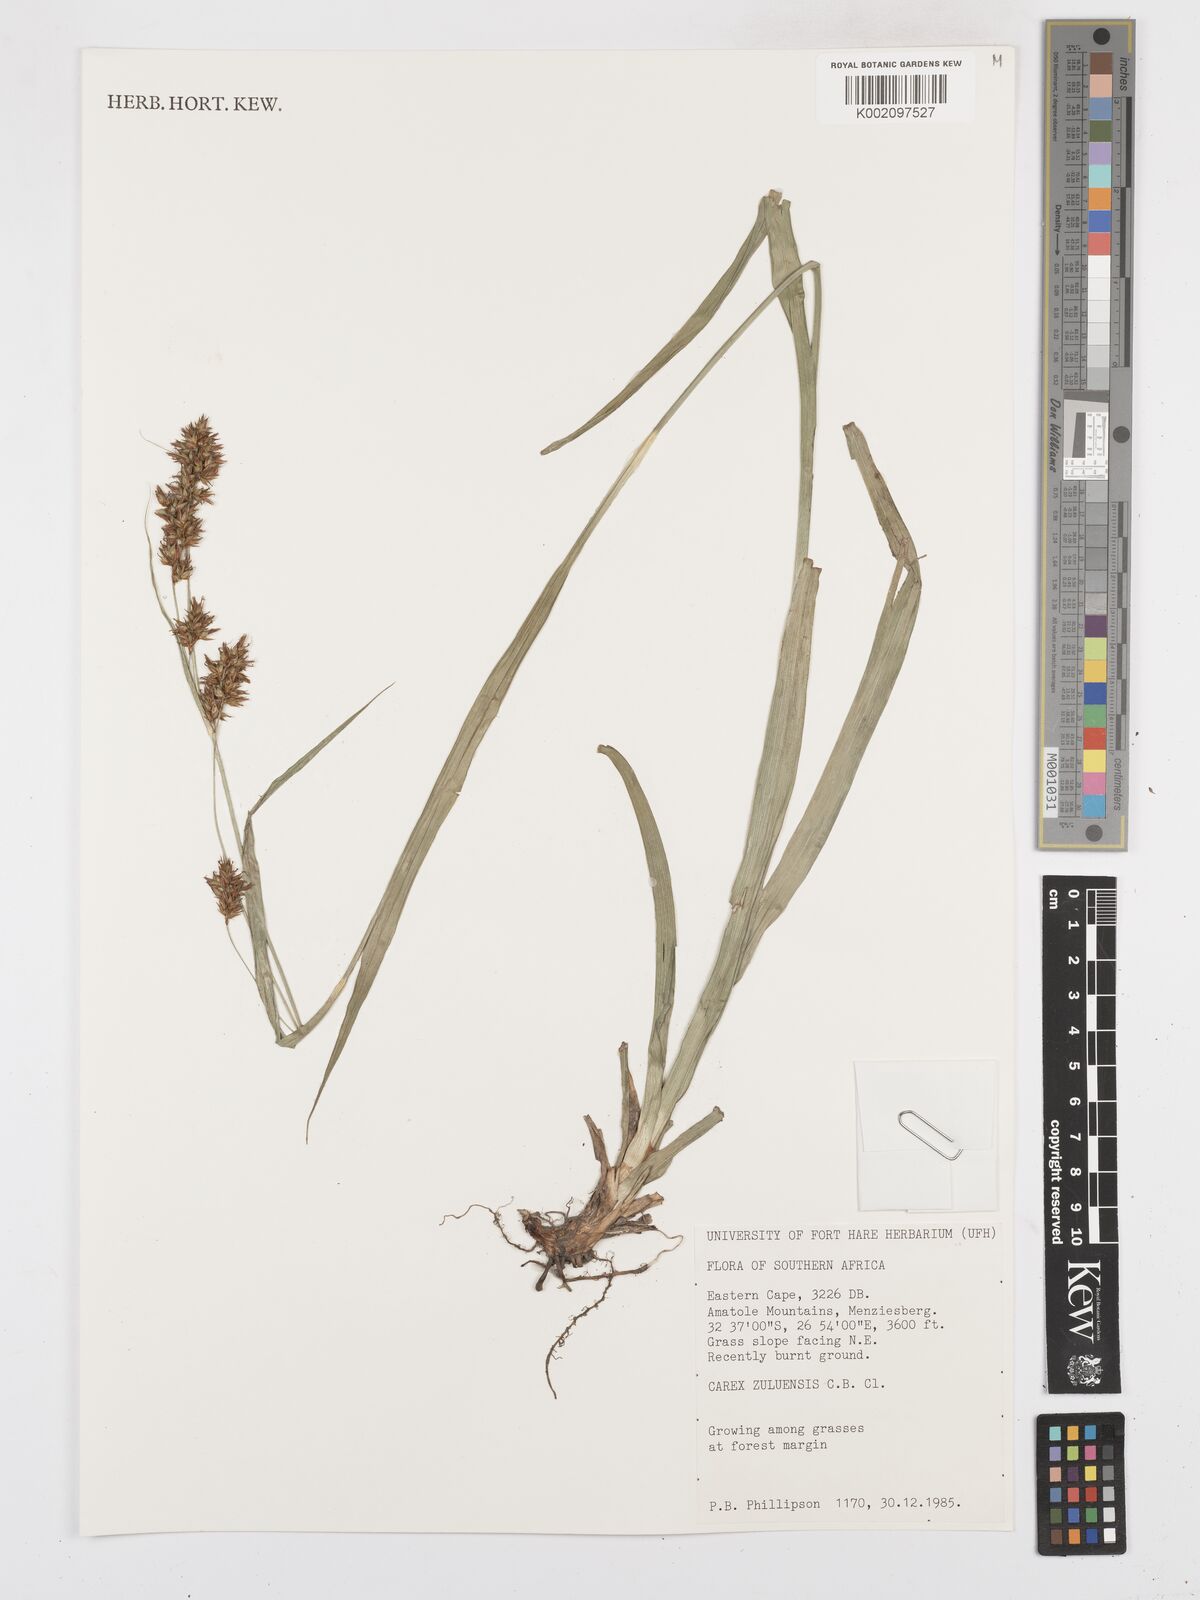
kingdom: Plantae
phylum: Tracheophyta
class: Liliopsida
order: Poales
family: Cyperaceae
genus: Carex
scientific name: Carex steudneri
